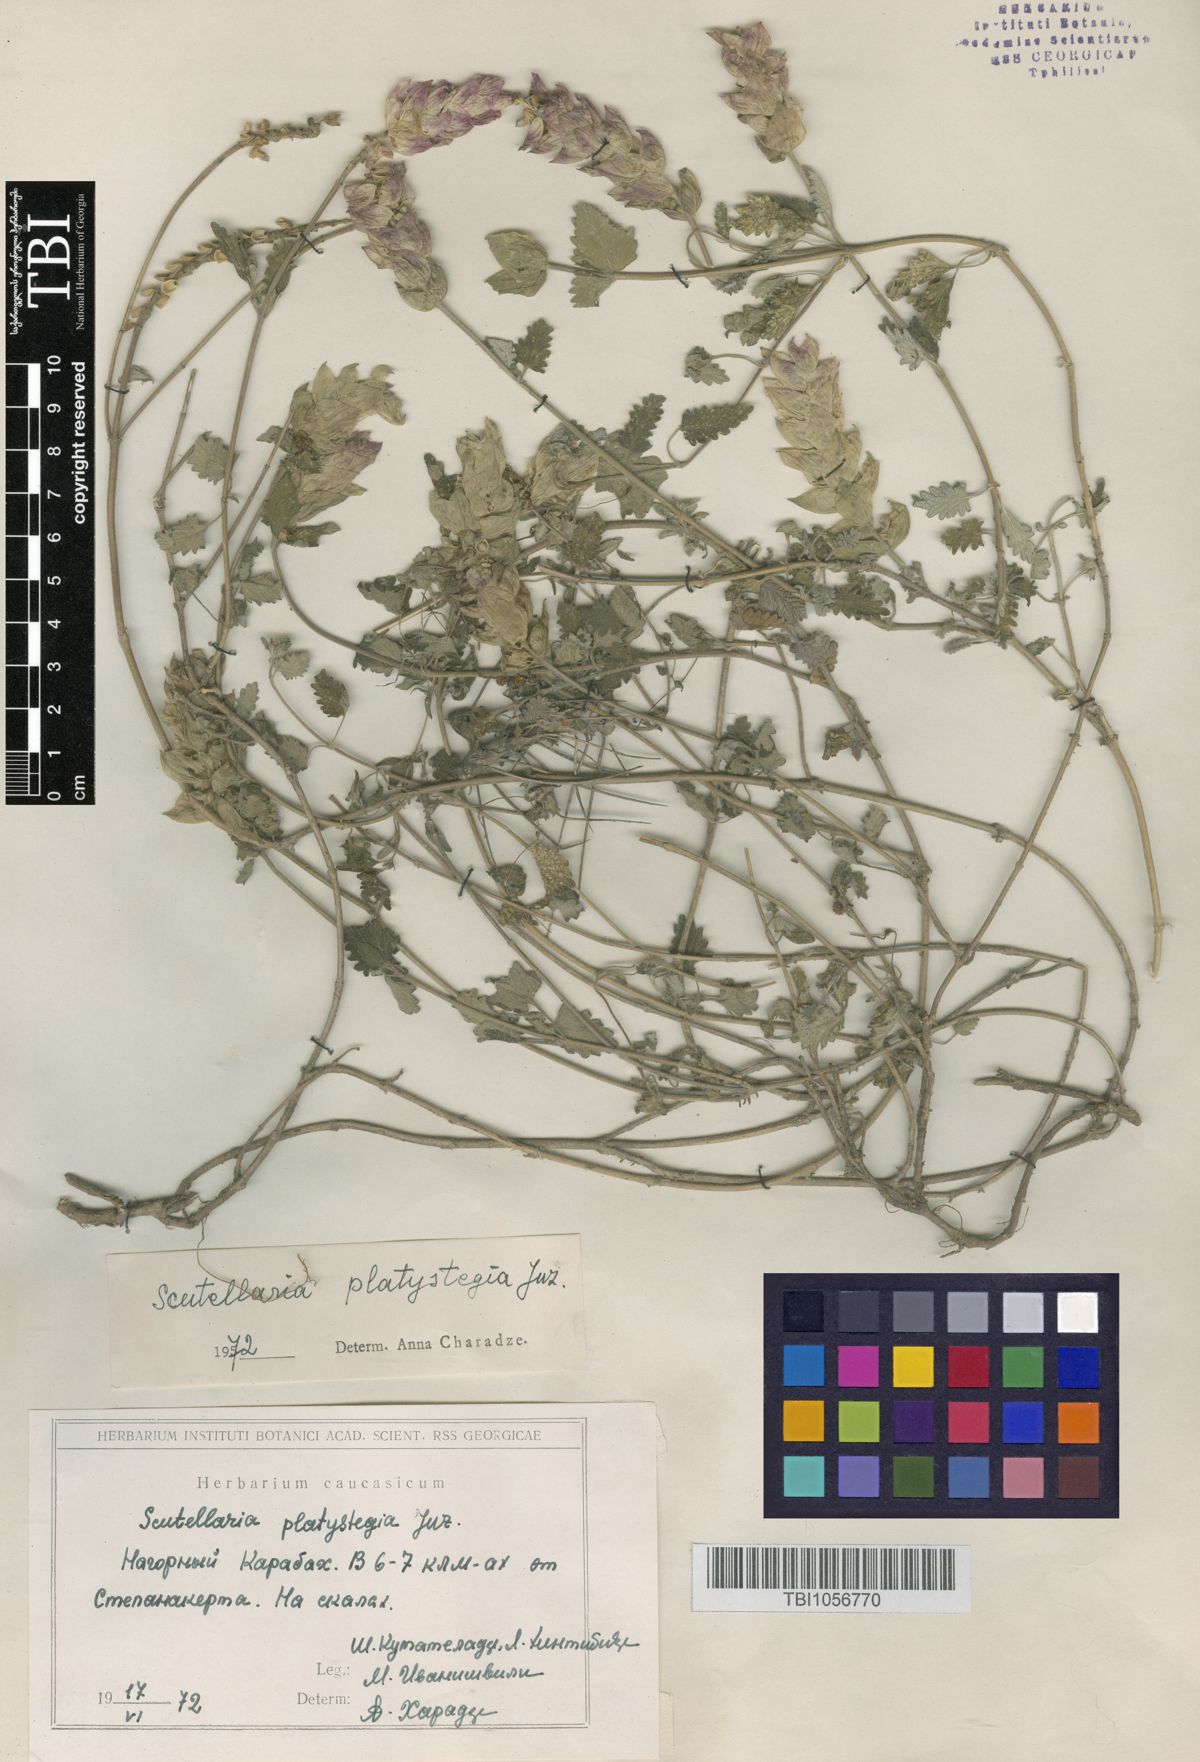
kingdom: Plantae
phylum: Tracheophyta
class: Magnoliopsida
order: Lamiales
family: Lamiaceae
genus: Scutellaria
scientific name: Scutellaria platystegia
